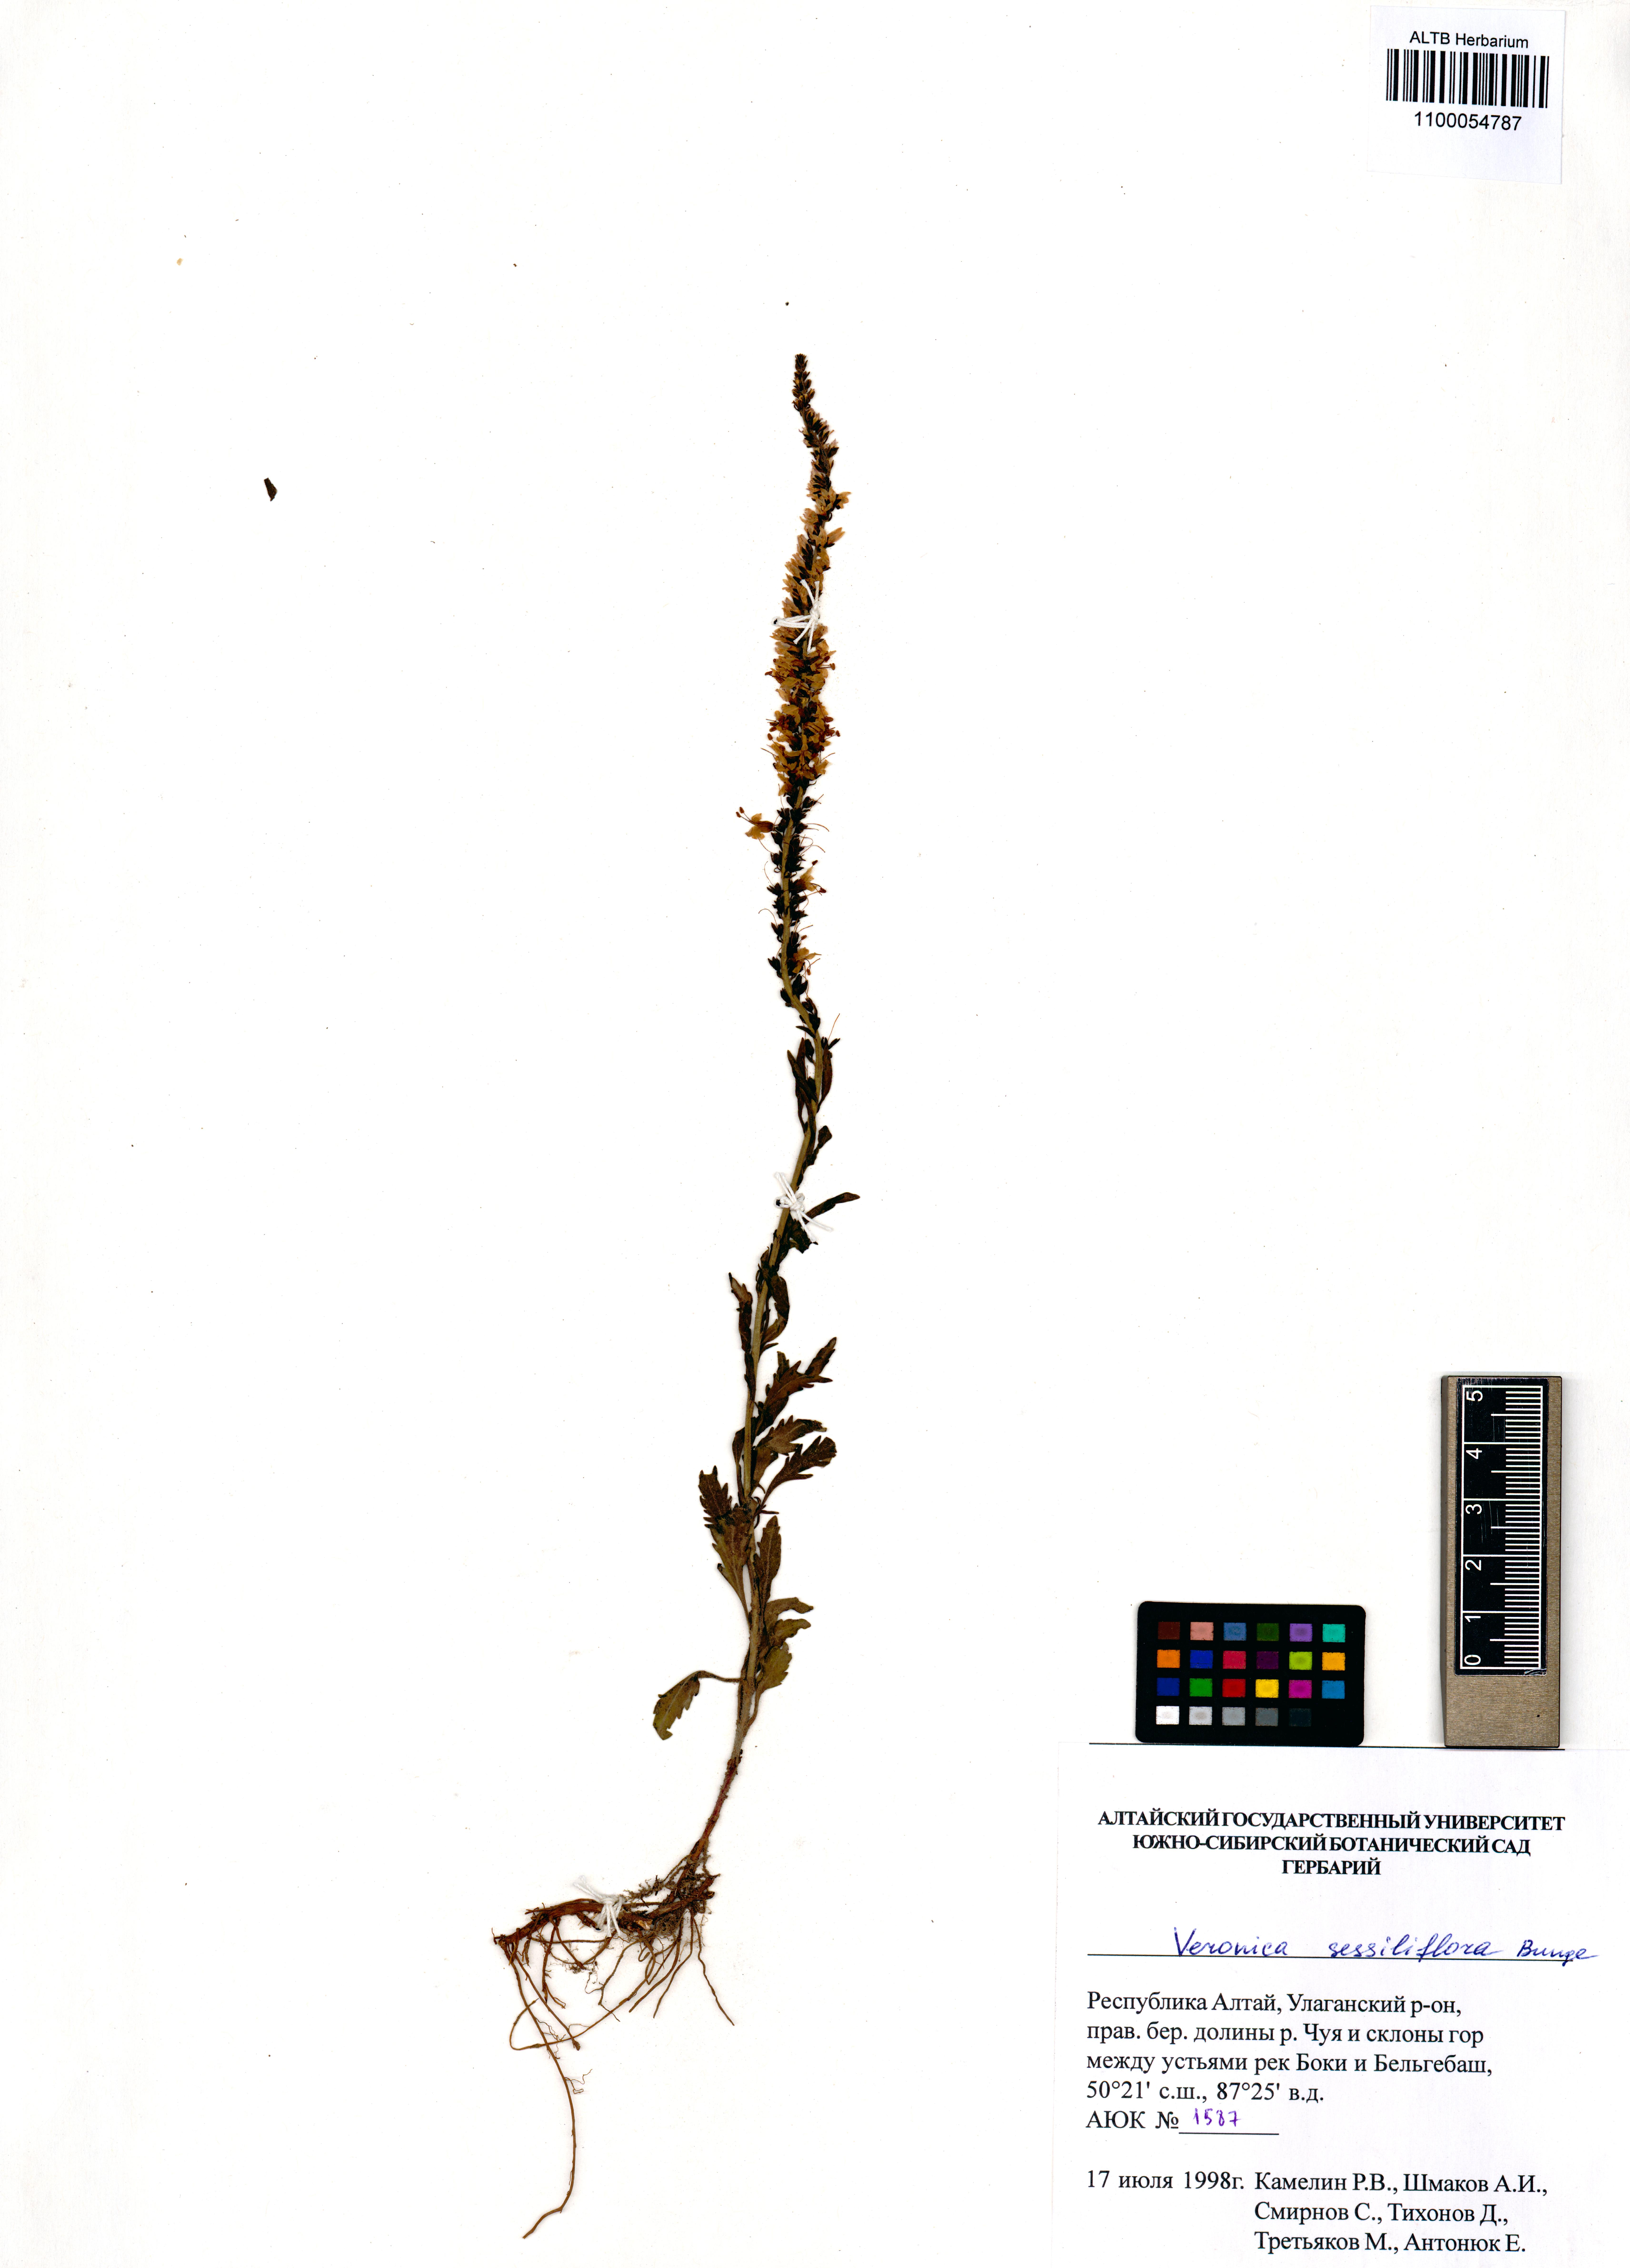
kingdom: Plantae
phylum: Tracheophyta
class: Magnoliopsida
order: Lamiales
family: Plantaginaceae
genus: Veronica
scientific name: Veronica sessiliflora
